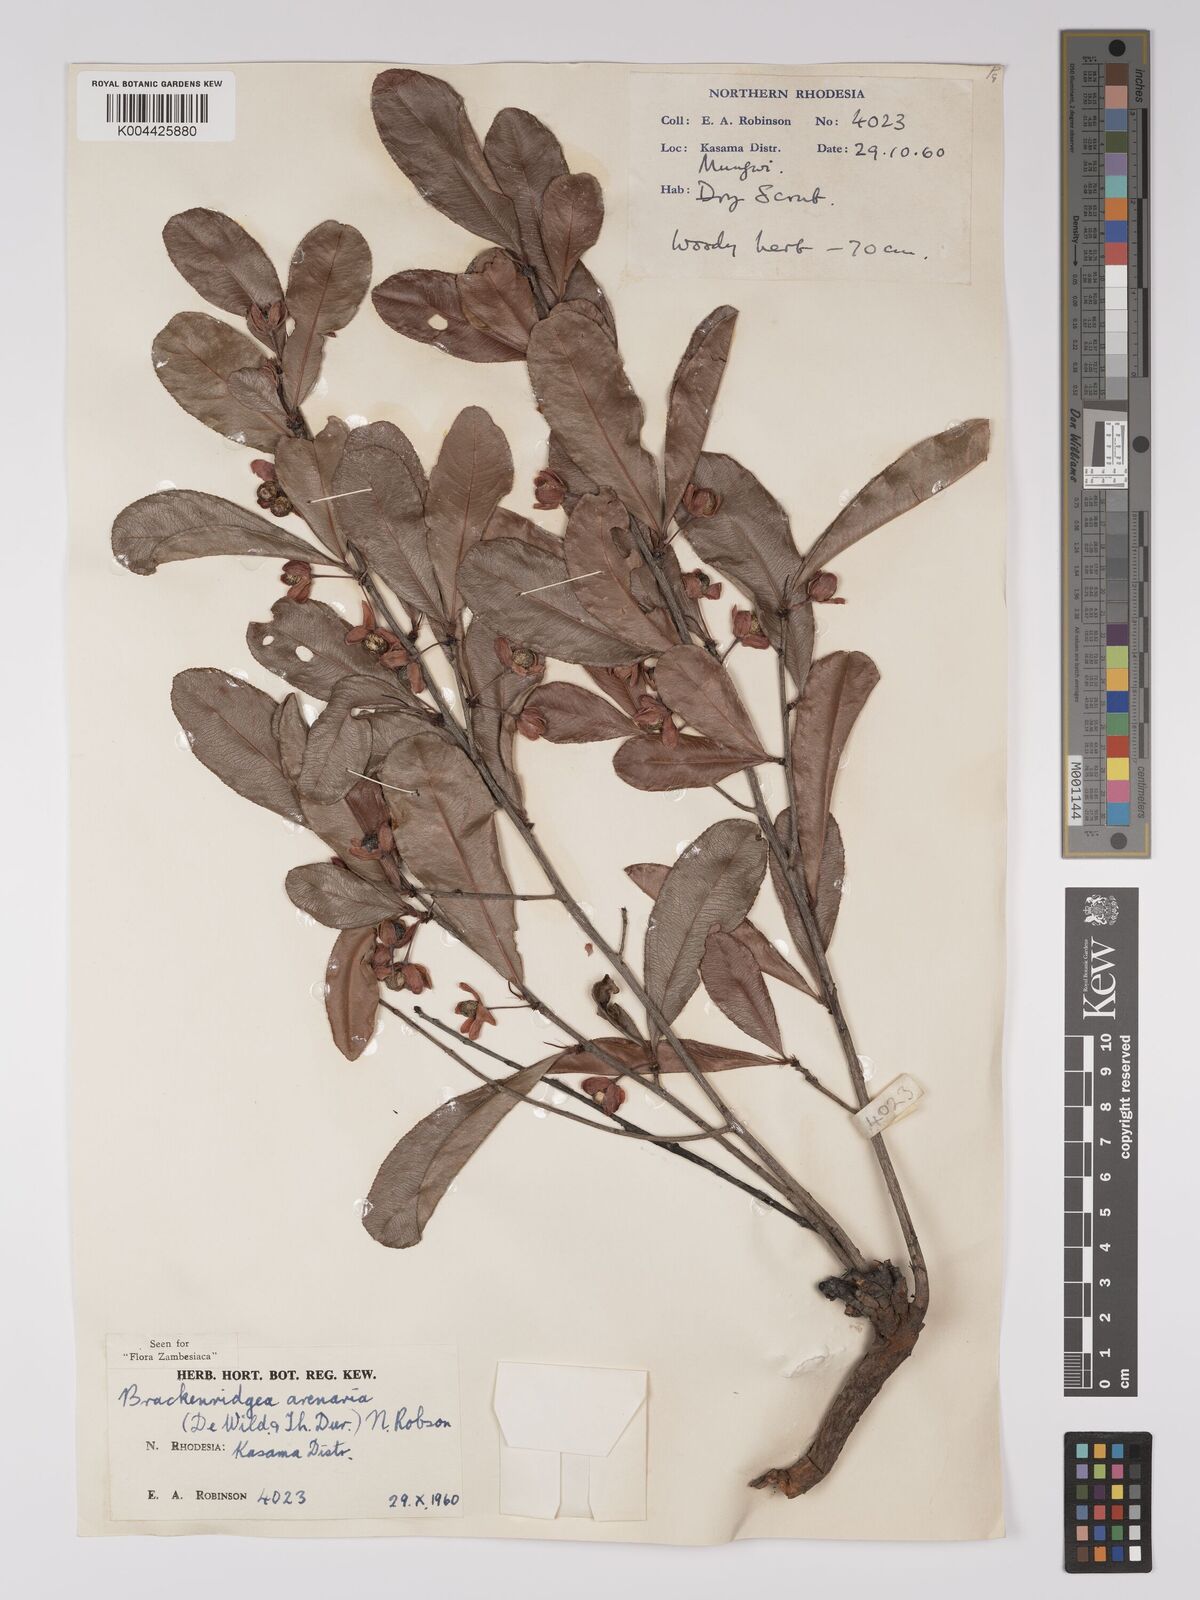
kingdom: Plantae
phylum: Tracheophyta
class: Magnoliopsida
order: Malpighiales
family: Ochnaceae
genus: Ochna
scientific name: Ochna arenaria
